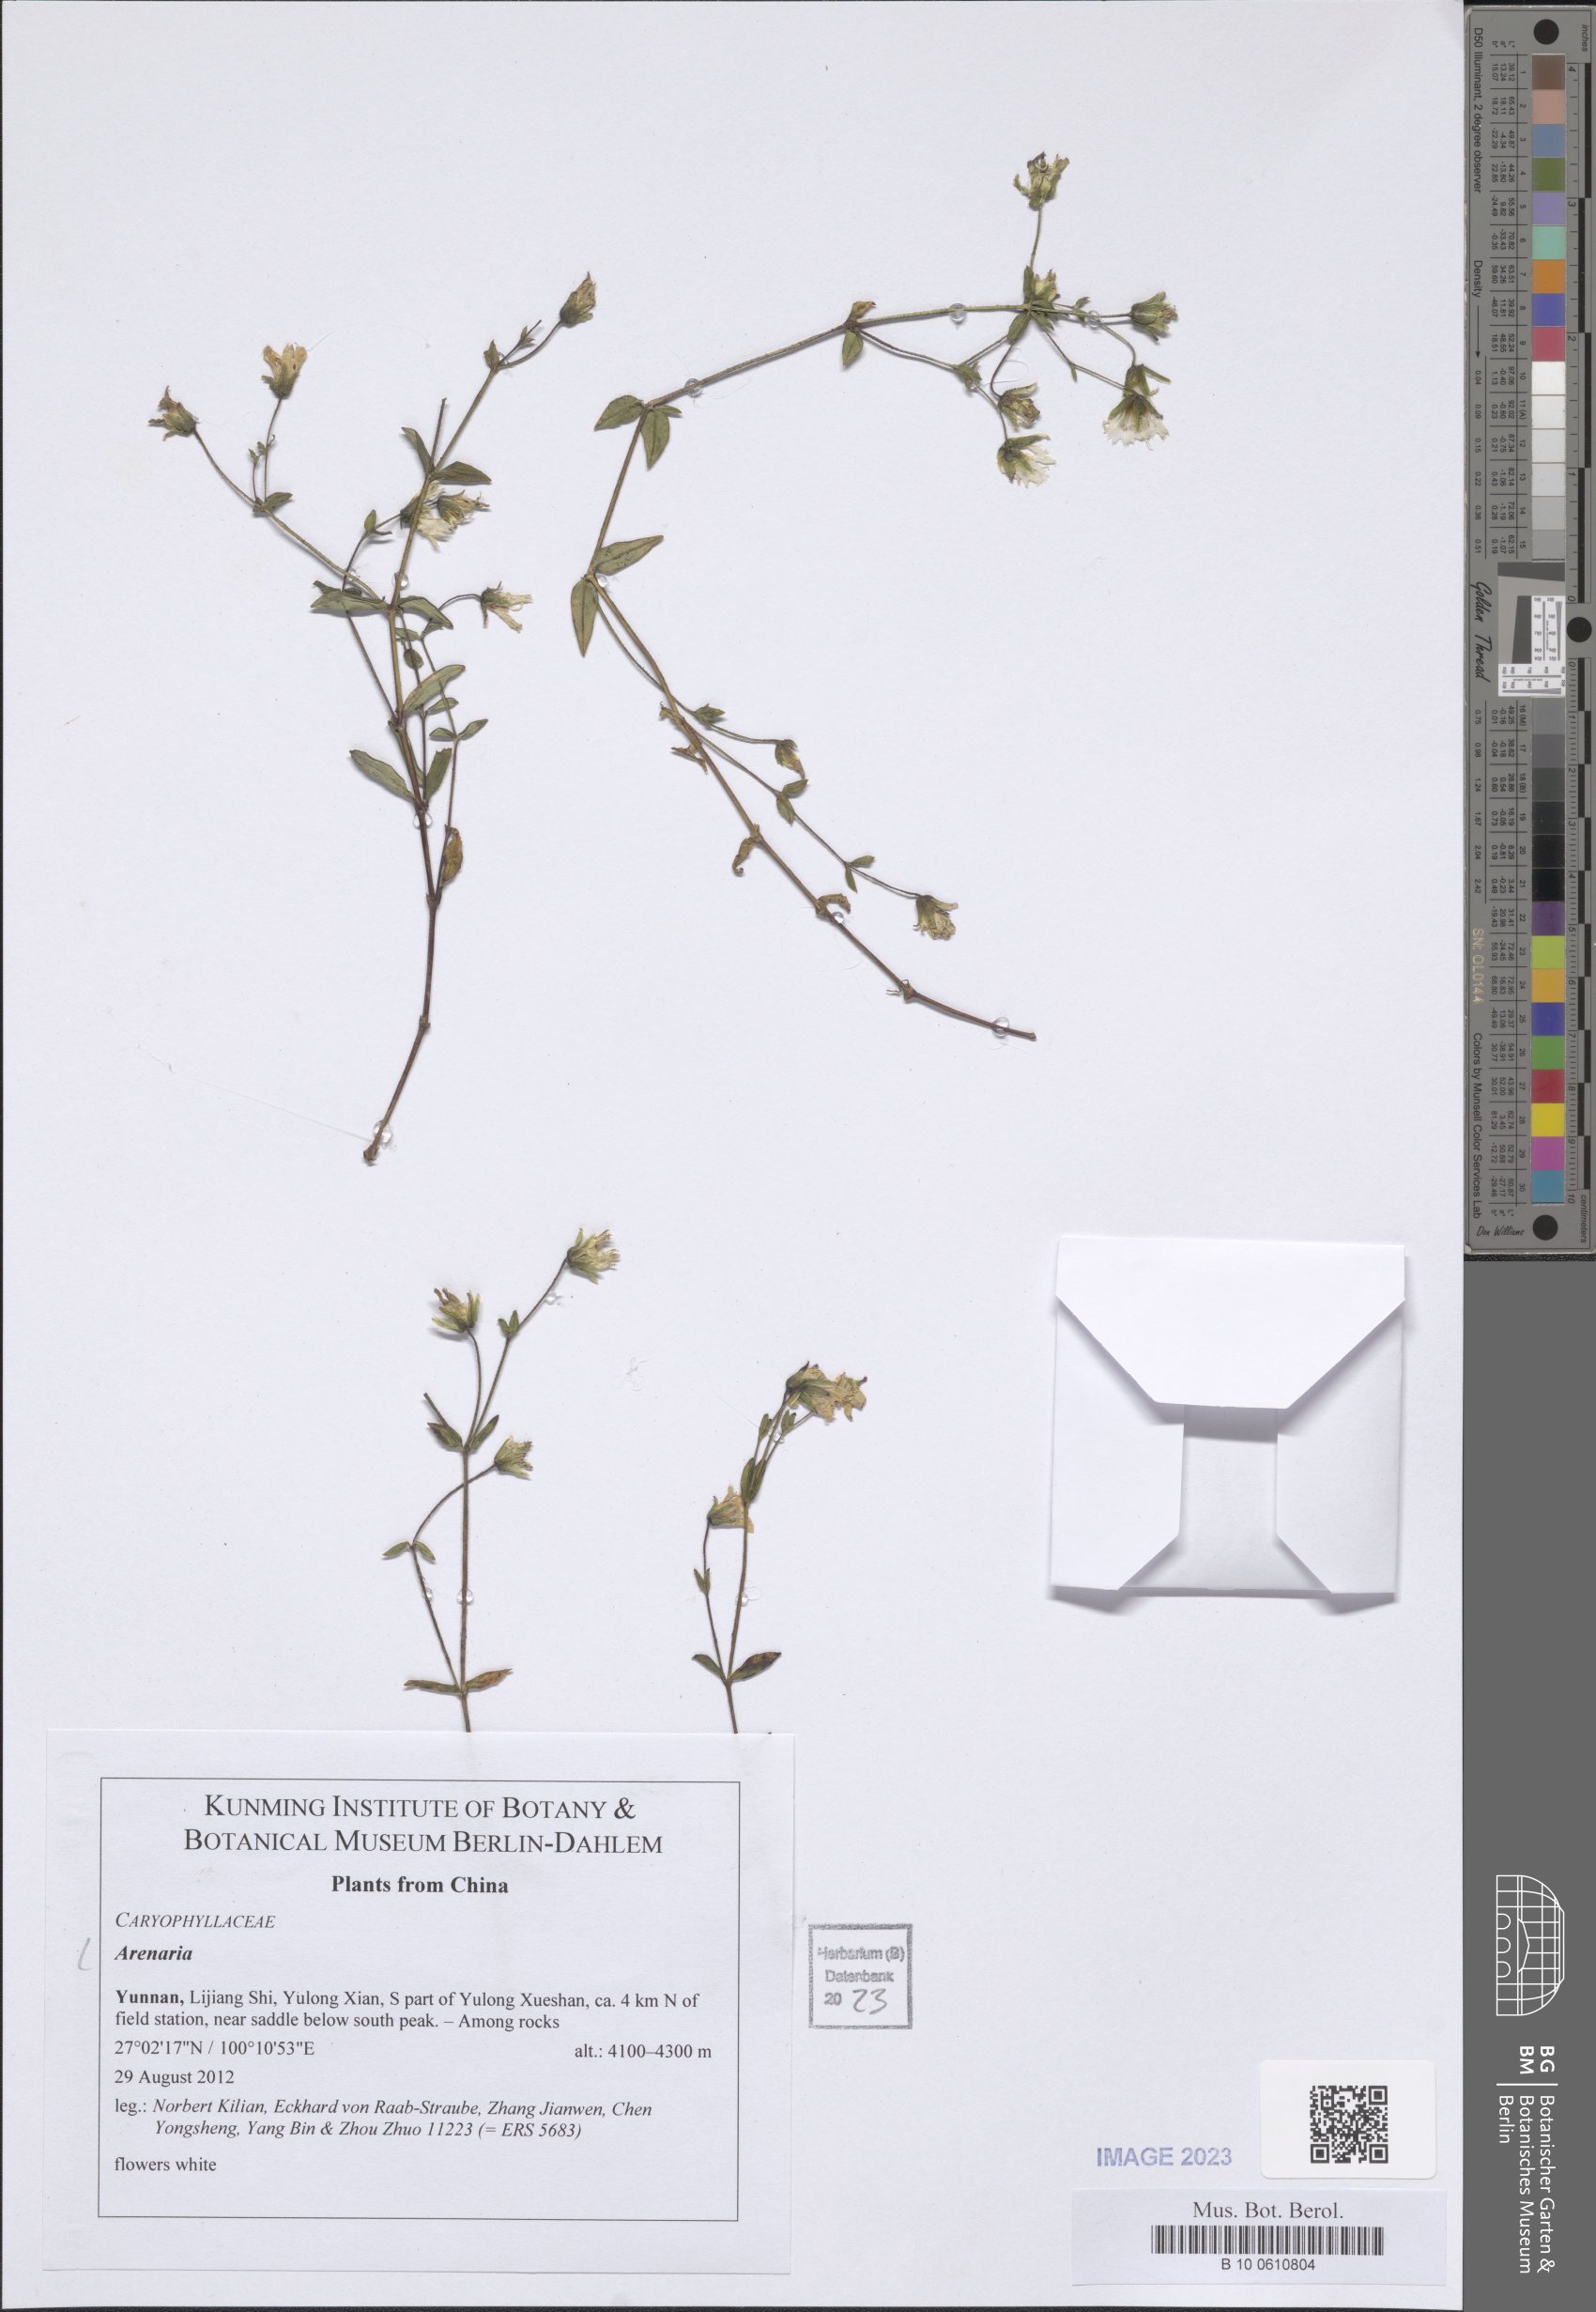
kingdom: Plantae
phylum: Tracheophyta
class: Magnoliopsida
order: Caryophyllales
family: Caryophyllaceae
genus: Arenaria
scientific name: Arenaria
